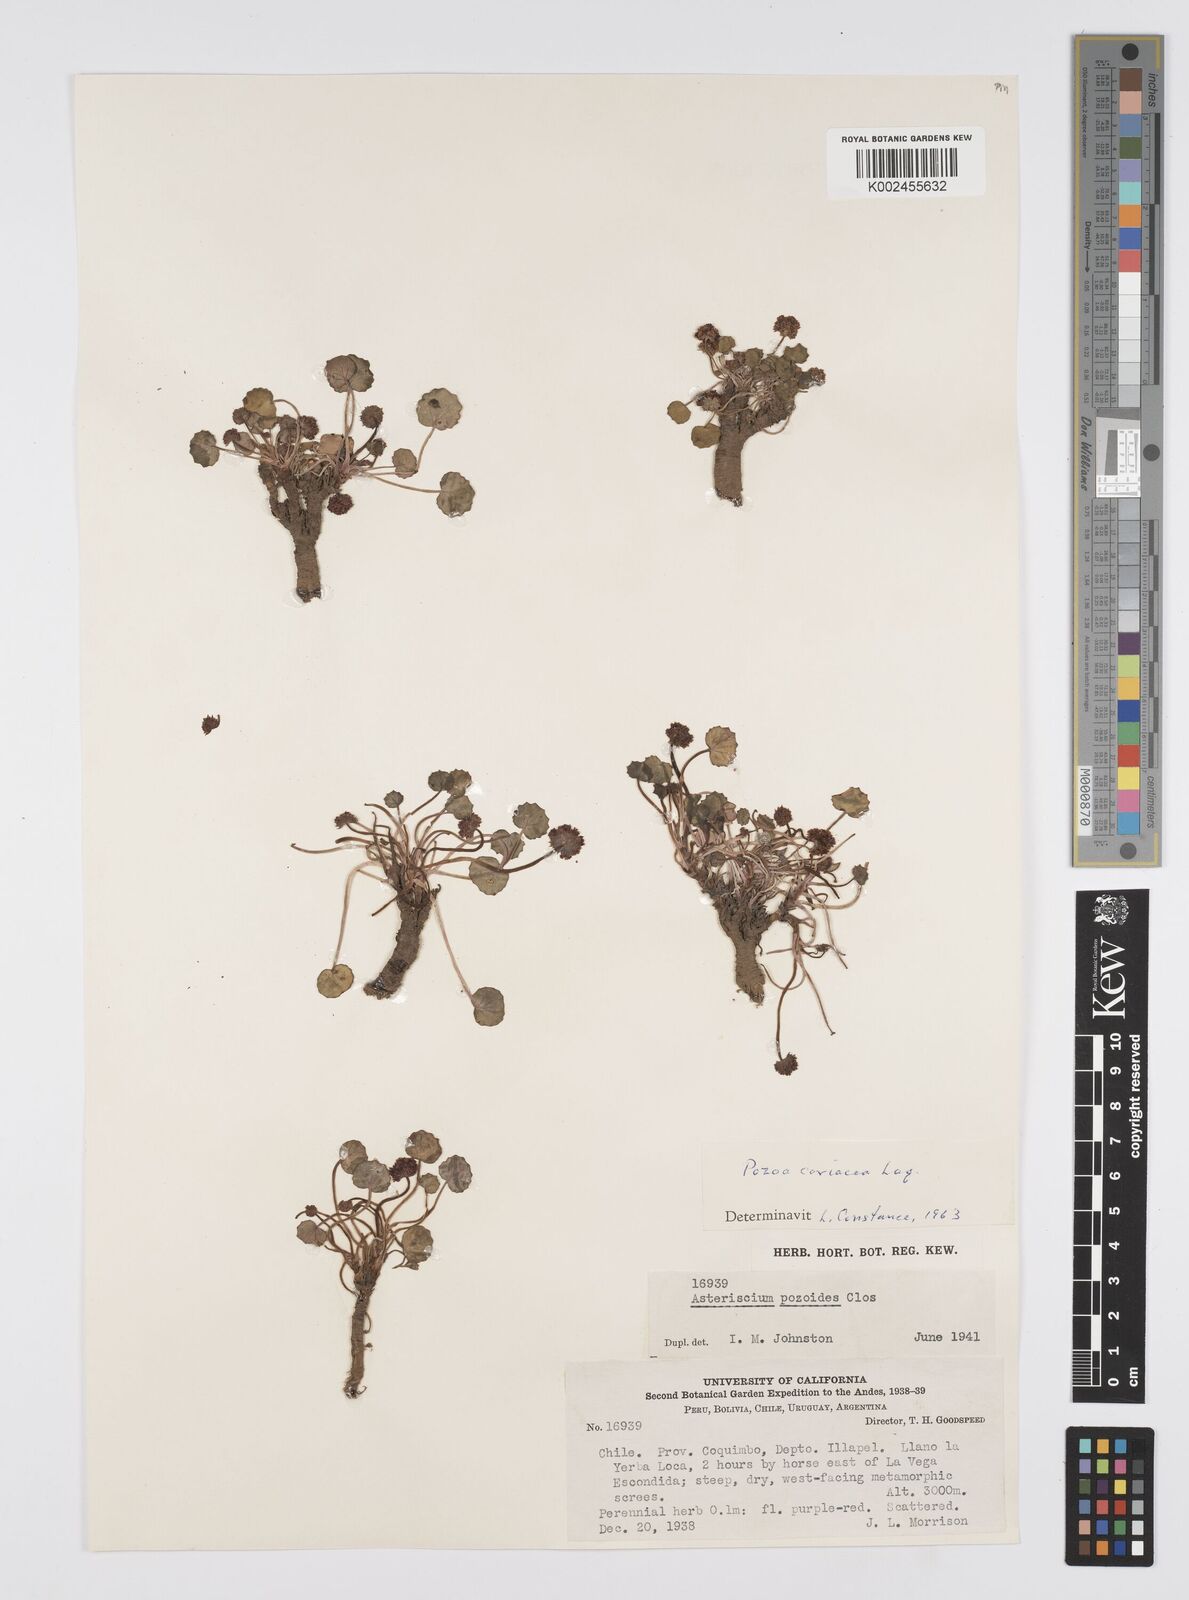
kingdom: Plantae
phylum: Tracheophyta
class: Magnoliopsida
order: Apiales
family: Apiaceae
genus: Pozoa
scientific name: Pozoa coriacea
